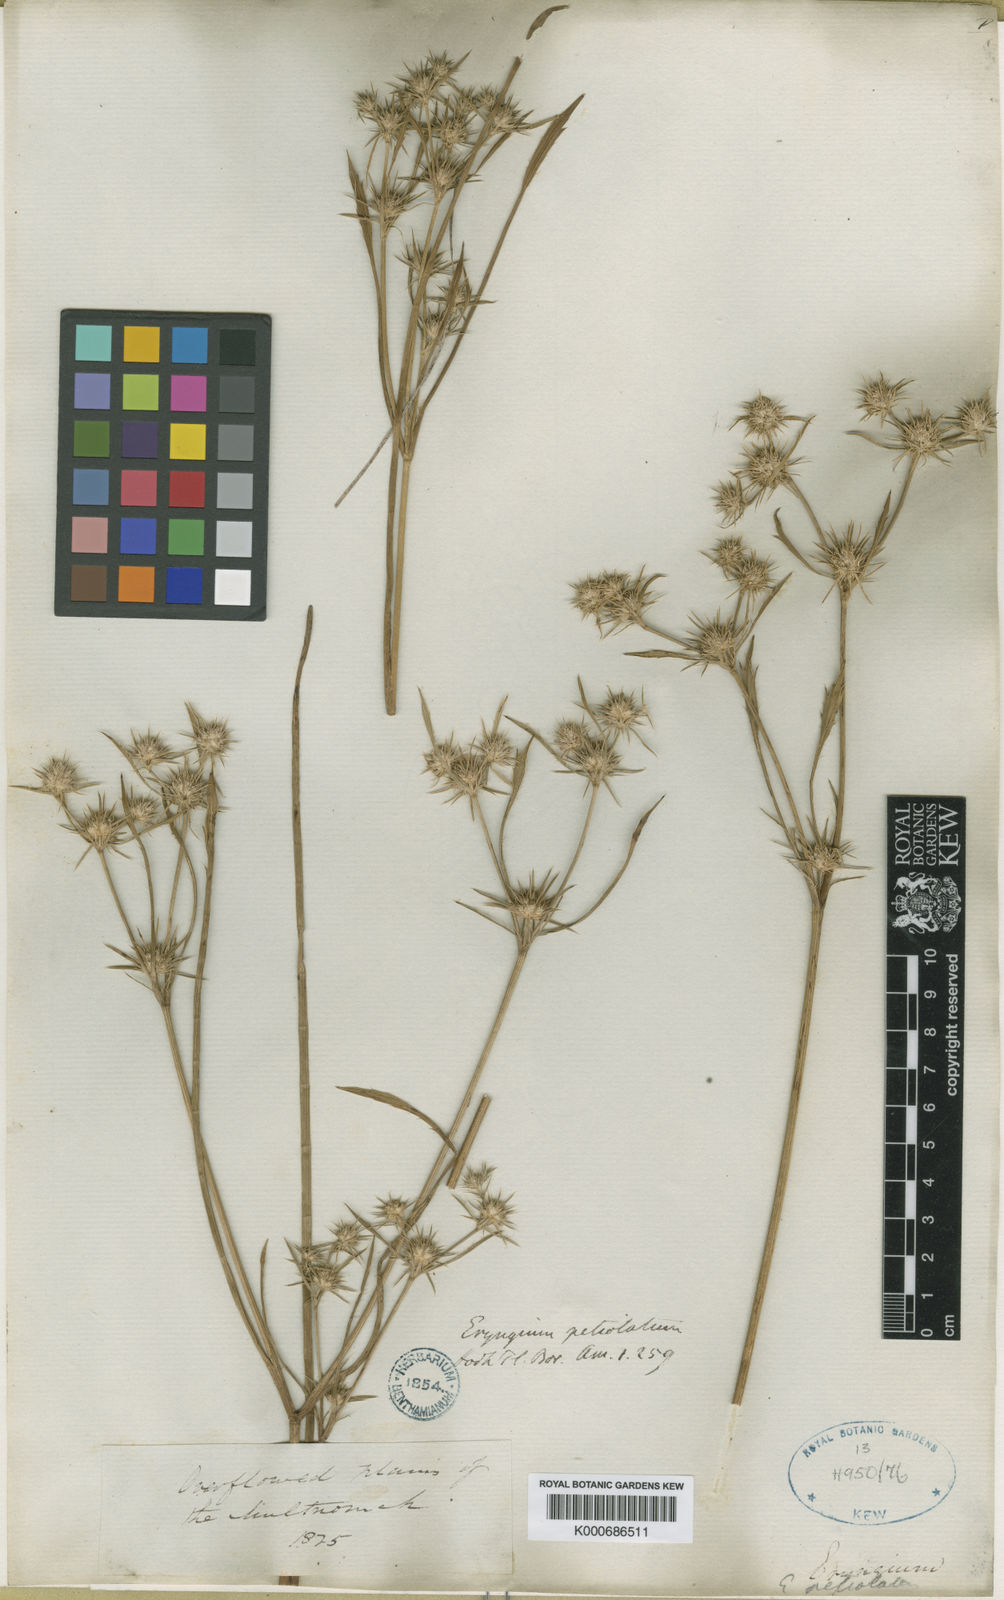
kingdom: Plantae
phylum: Tracheophyta
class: Magnoliopsida
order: Apiales
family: Apiaceae
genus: Eryngium
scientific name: Eryngium petiolatum
